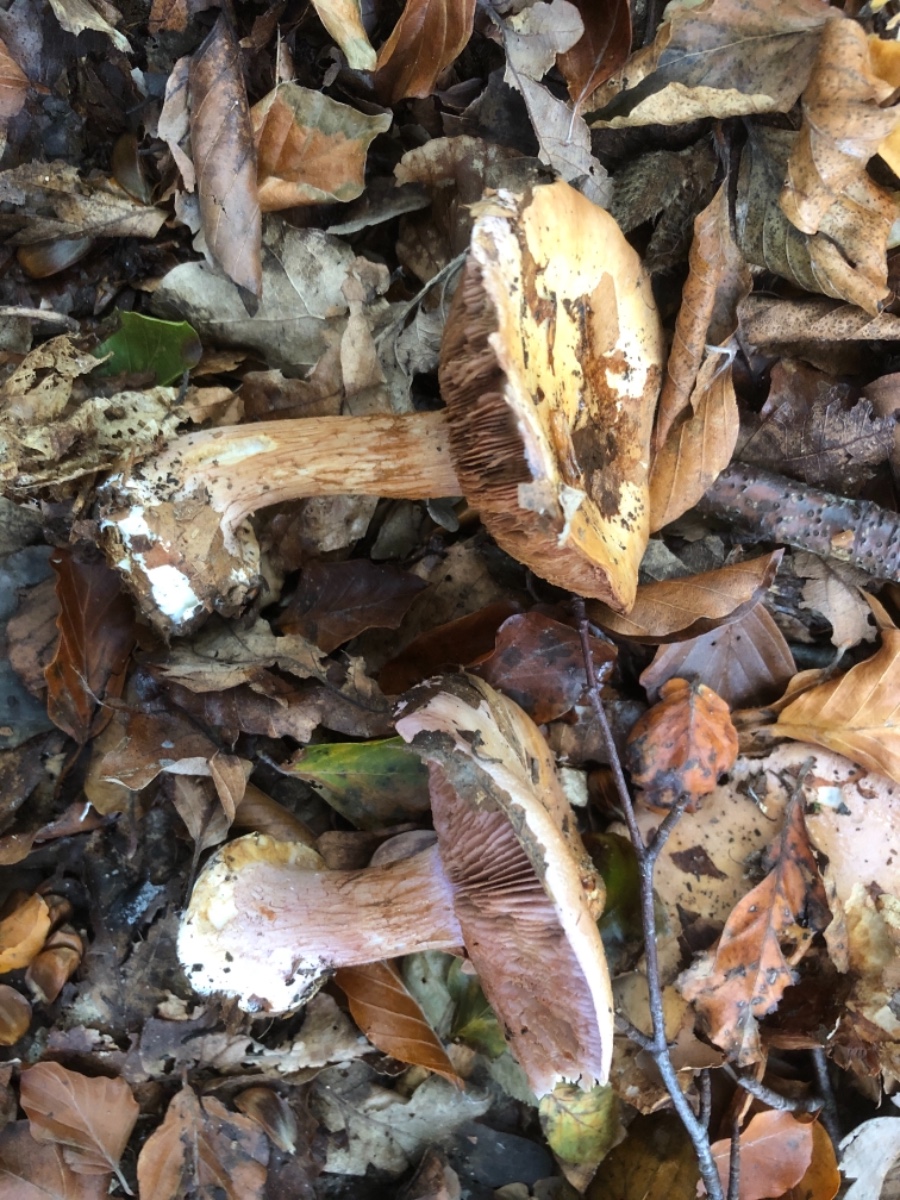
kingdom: Fungi
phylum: Basidiomycota
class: Agaricomycetes
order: Agaricales
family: Cortinariaceae
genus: Calonarius
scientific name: Calonarius suaveolens
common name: sødtduftende slørhat
